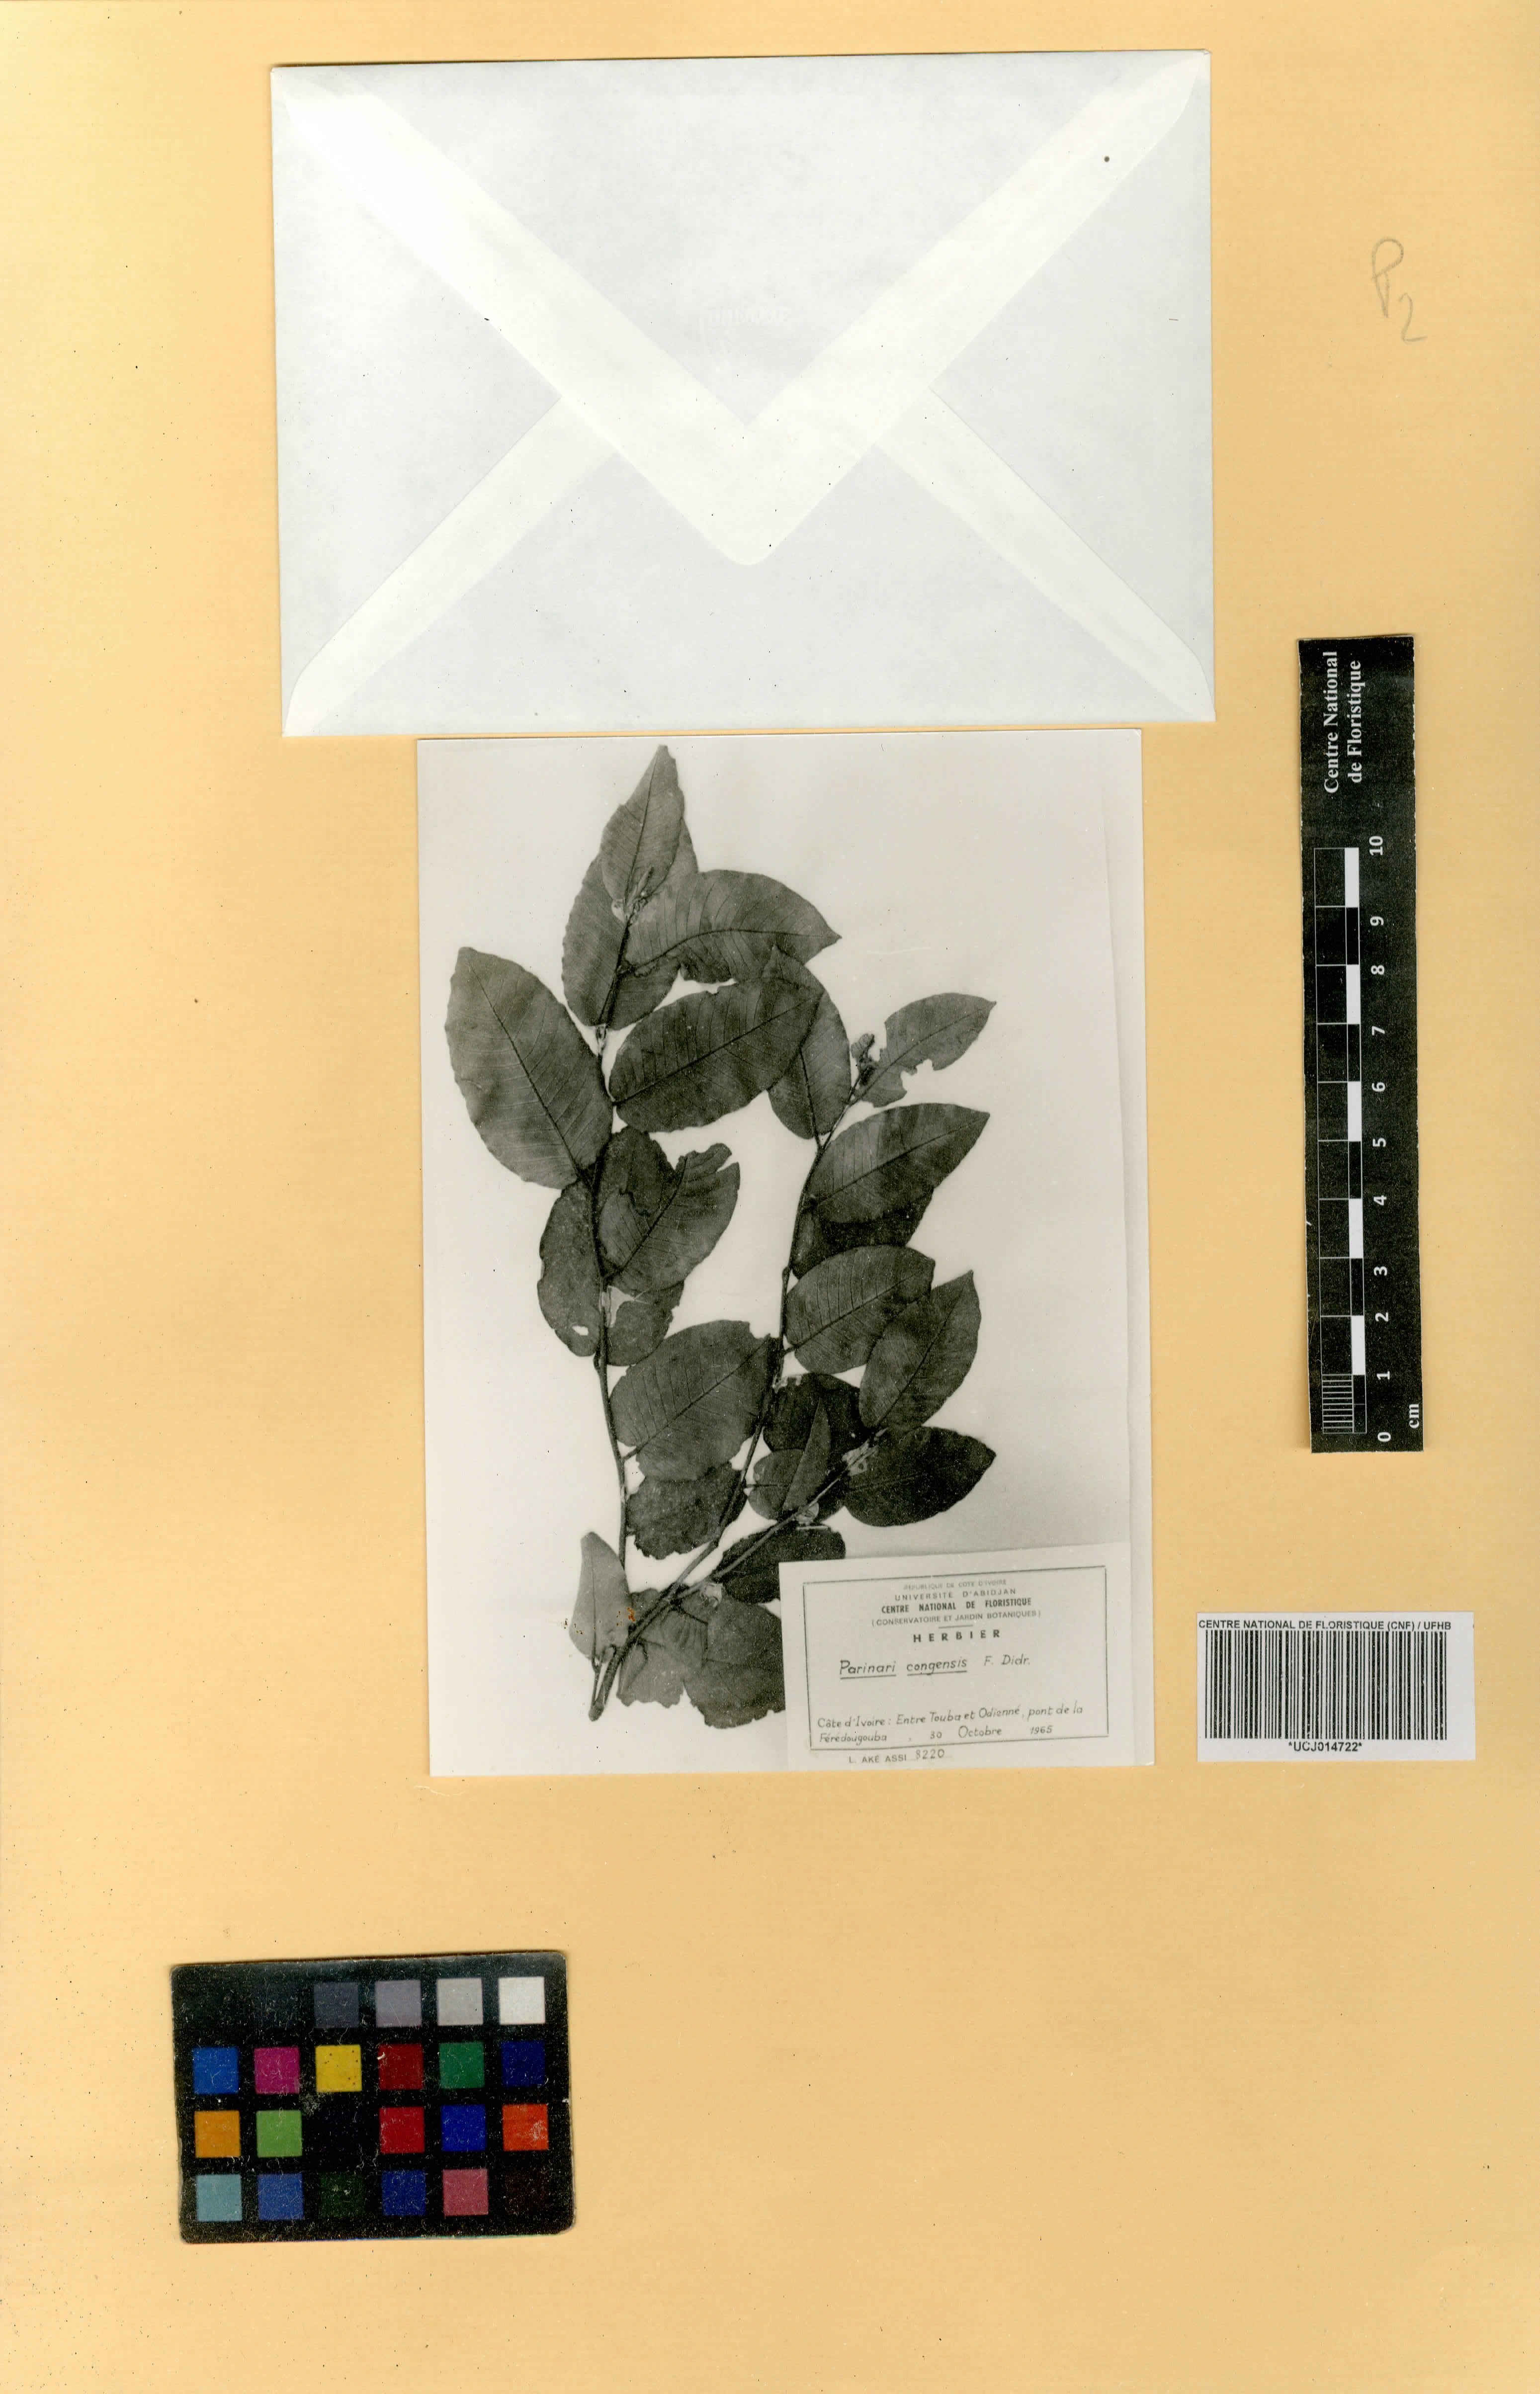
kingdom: Plantae
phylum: Tracheophyta
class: Magnoliopsida
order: Malpighiales
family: Chrysobalanaceae
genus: Parinari
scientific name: Parinari congensis
